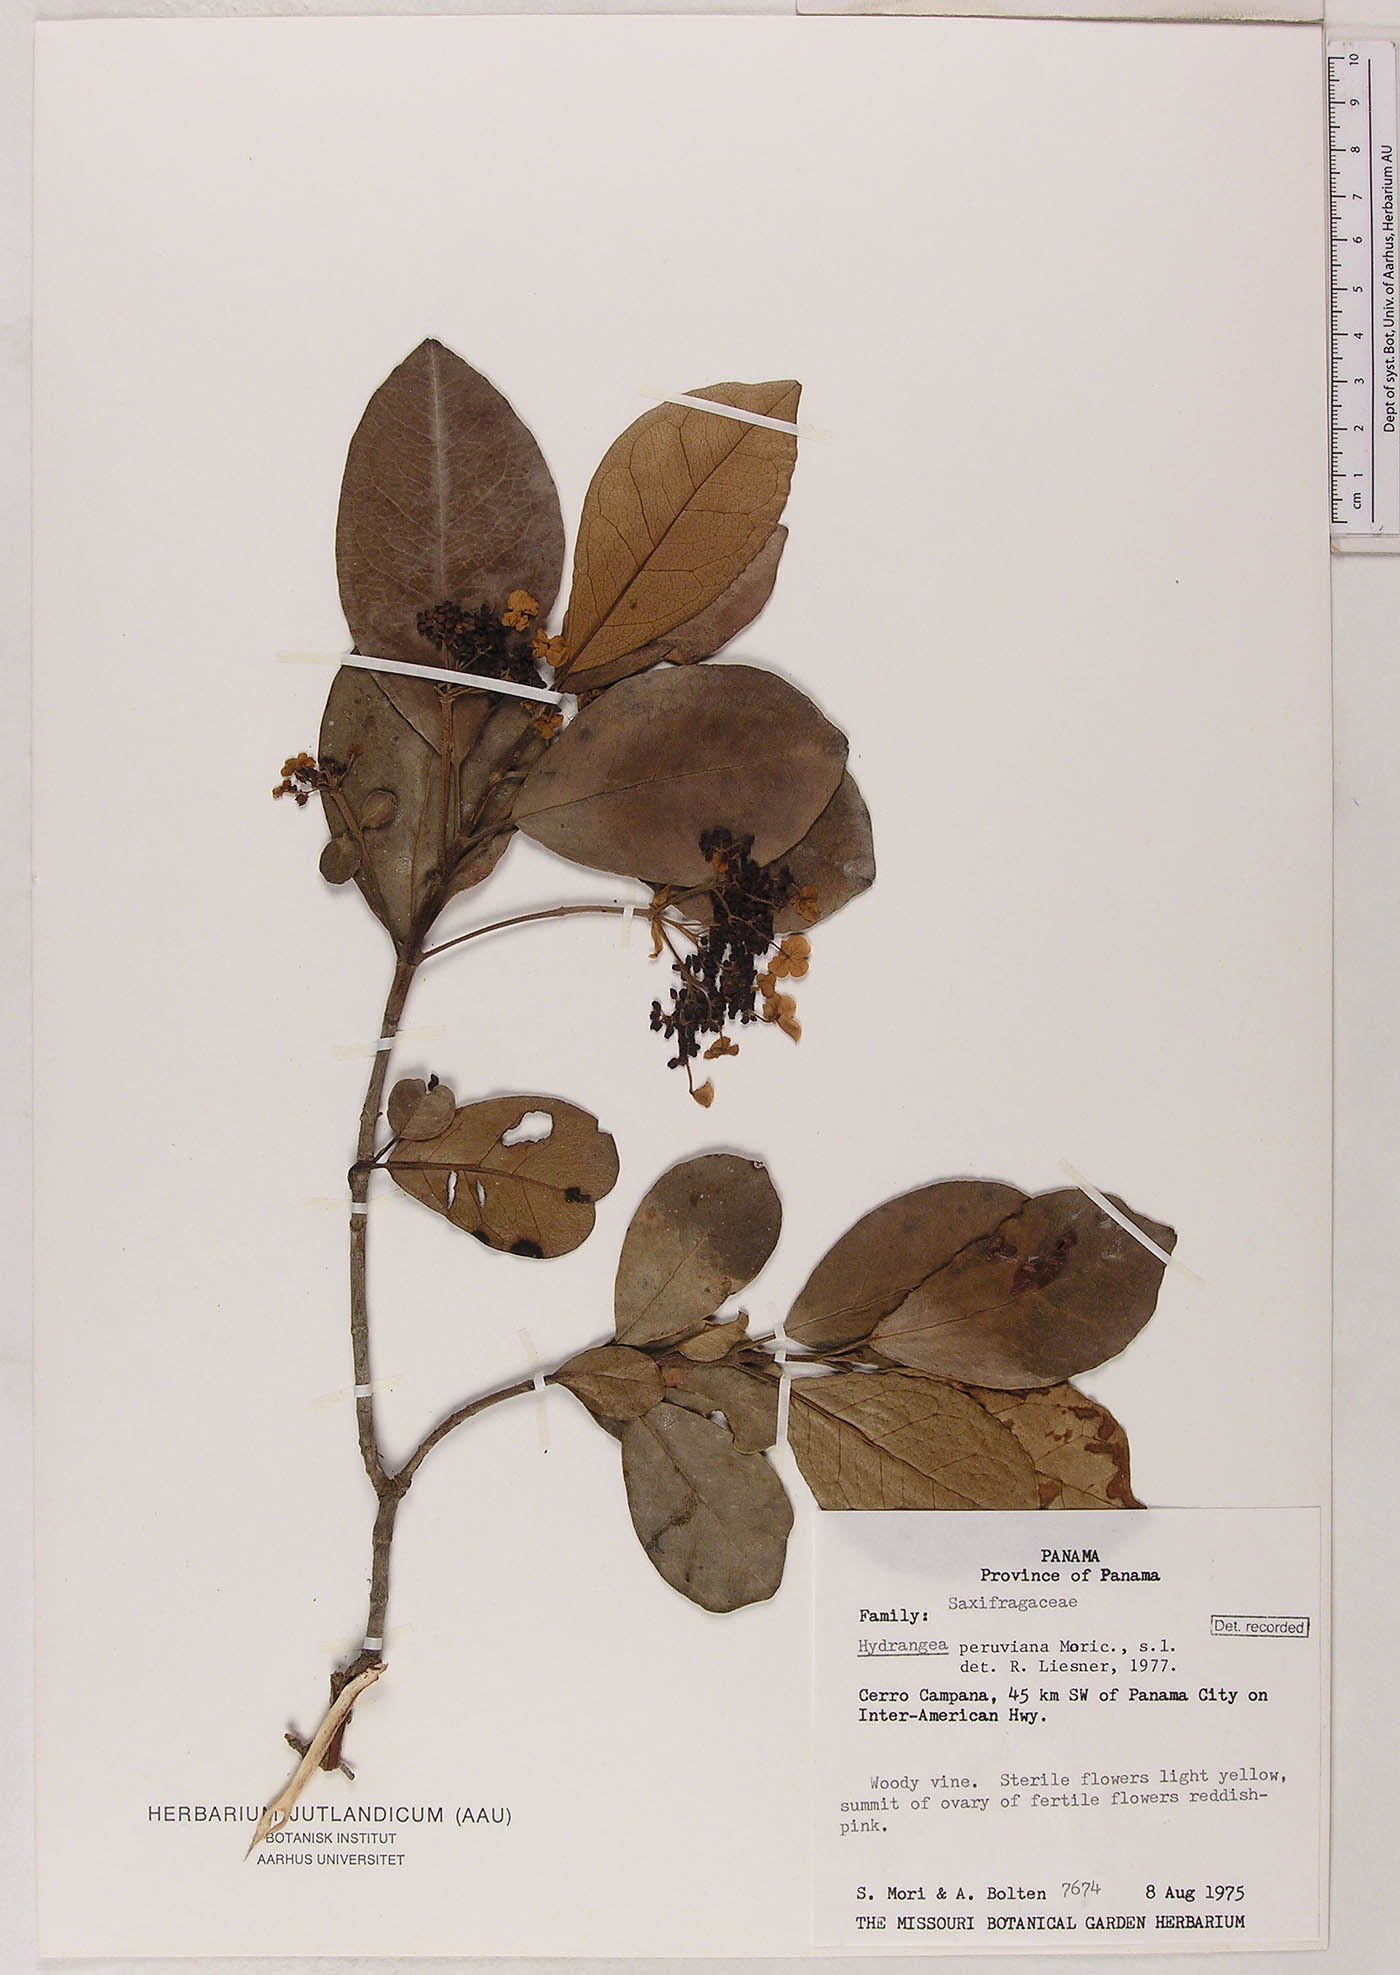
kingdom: Plantae
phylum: Tracheophyta
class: Magnoliopsida
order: Cornales
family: Hydrangeaceae
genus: Hydrangea
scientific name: Hydrangea peruviana
